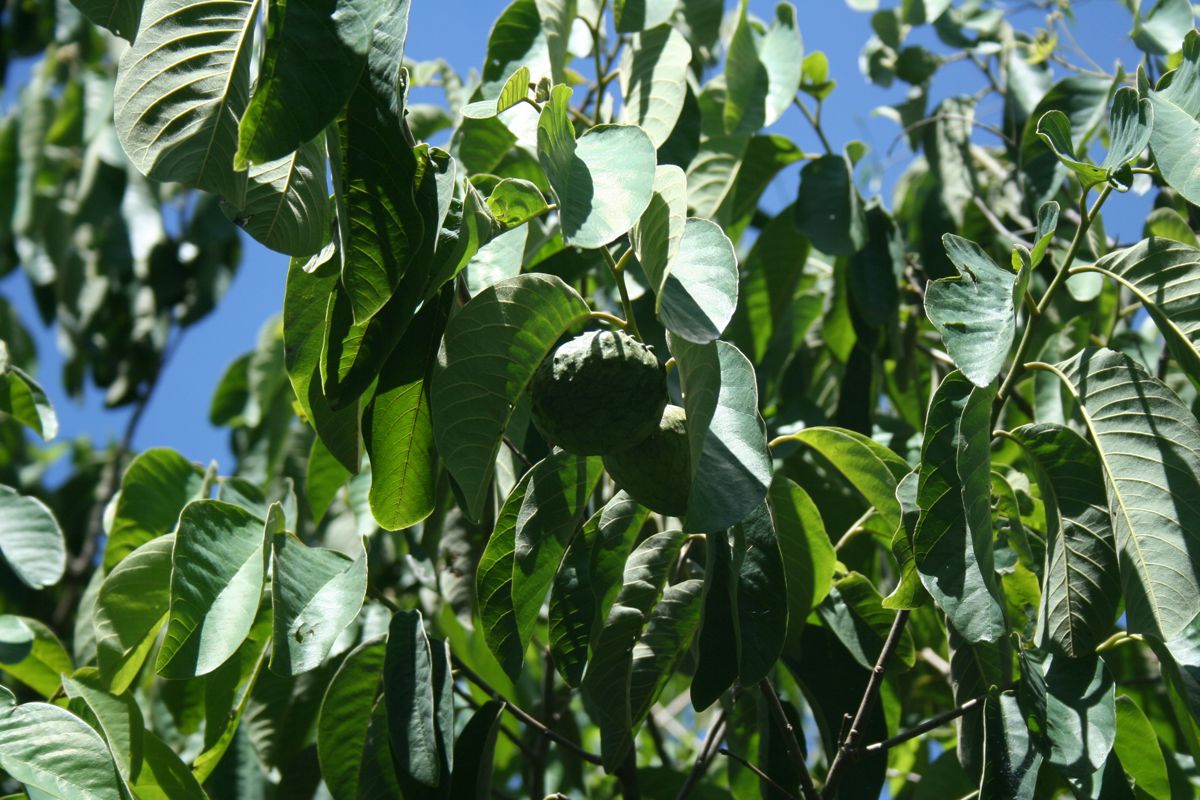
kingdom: Plantae
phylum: Tracheophyta
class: Magnoliopsida
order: Magnoliales
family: Annonaceae
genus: Annona
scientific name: Annona purpurea
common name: Negrohead
